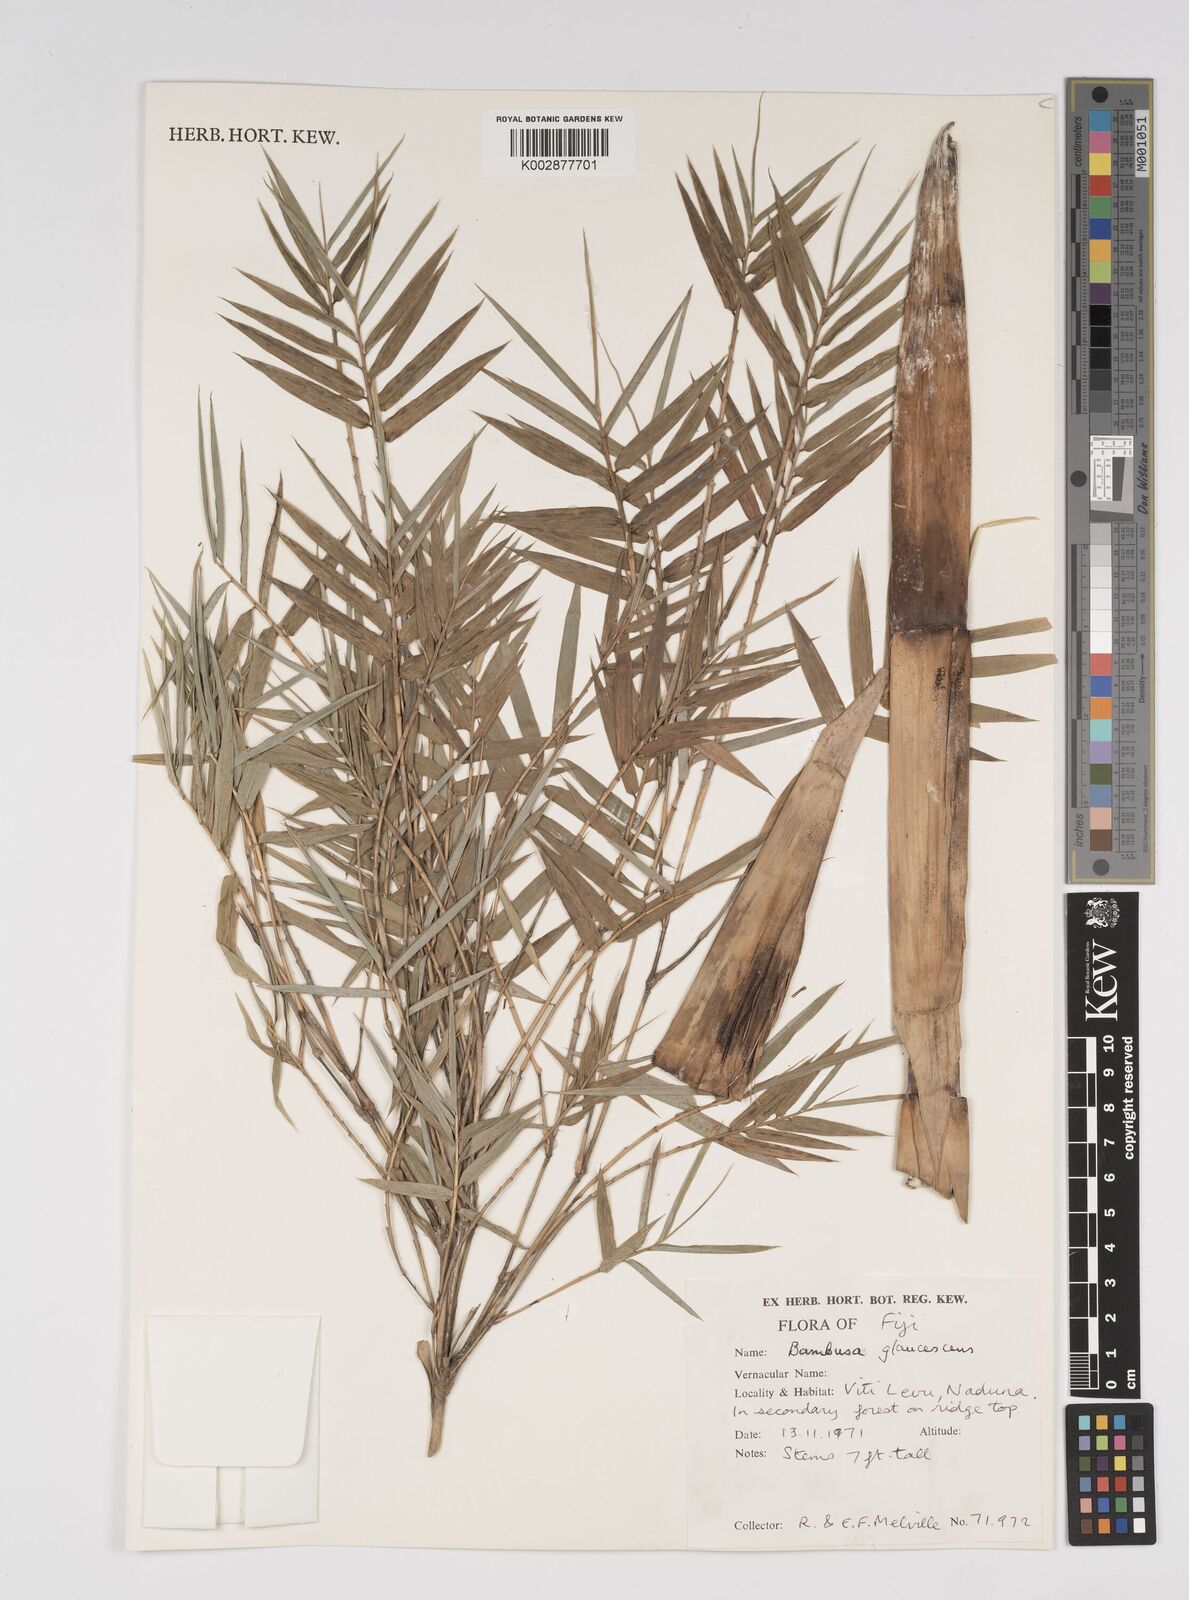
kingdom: Plantae
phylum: Tracheophyta
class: Liliopsida
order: Poales
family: Poaceae
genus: Bambusa
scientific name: Bambusa multiplex
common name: Hedge bamboo
